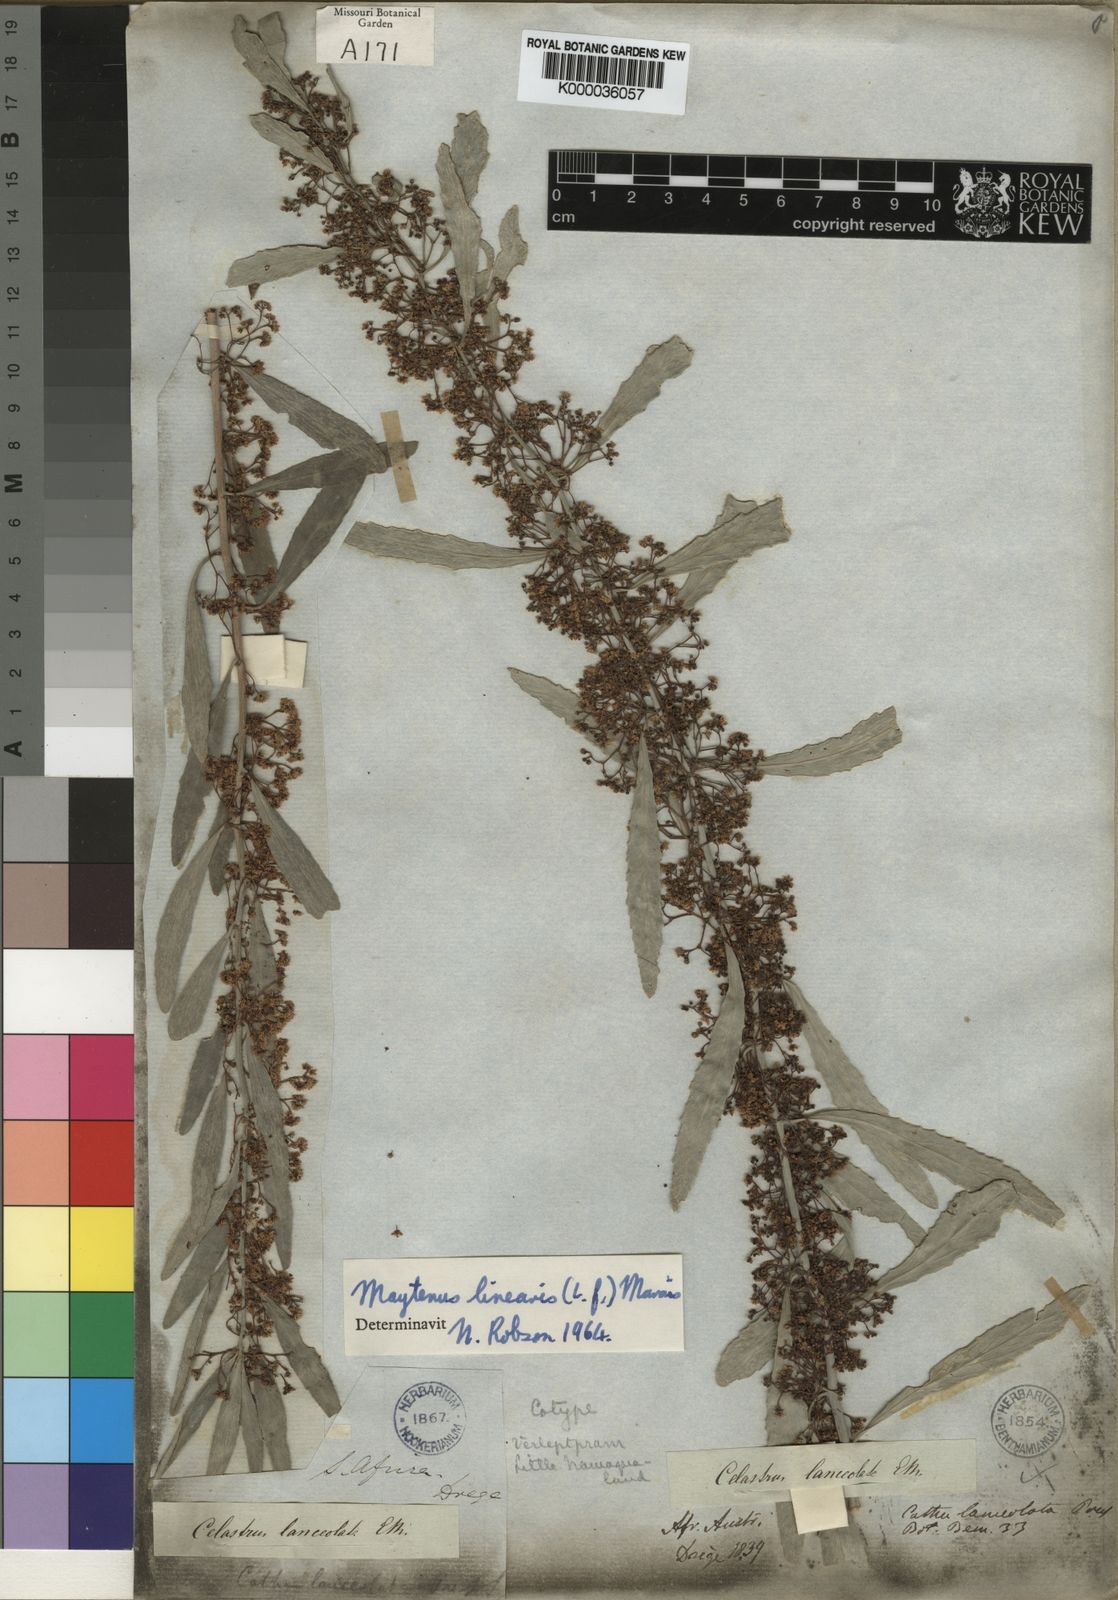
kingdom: Plantae
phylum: Tracheophyta
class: Magnoliopsida
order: Celastrales
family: Celastraceae
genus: Gymnosporia
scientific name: Gymnosporia linearis
